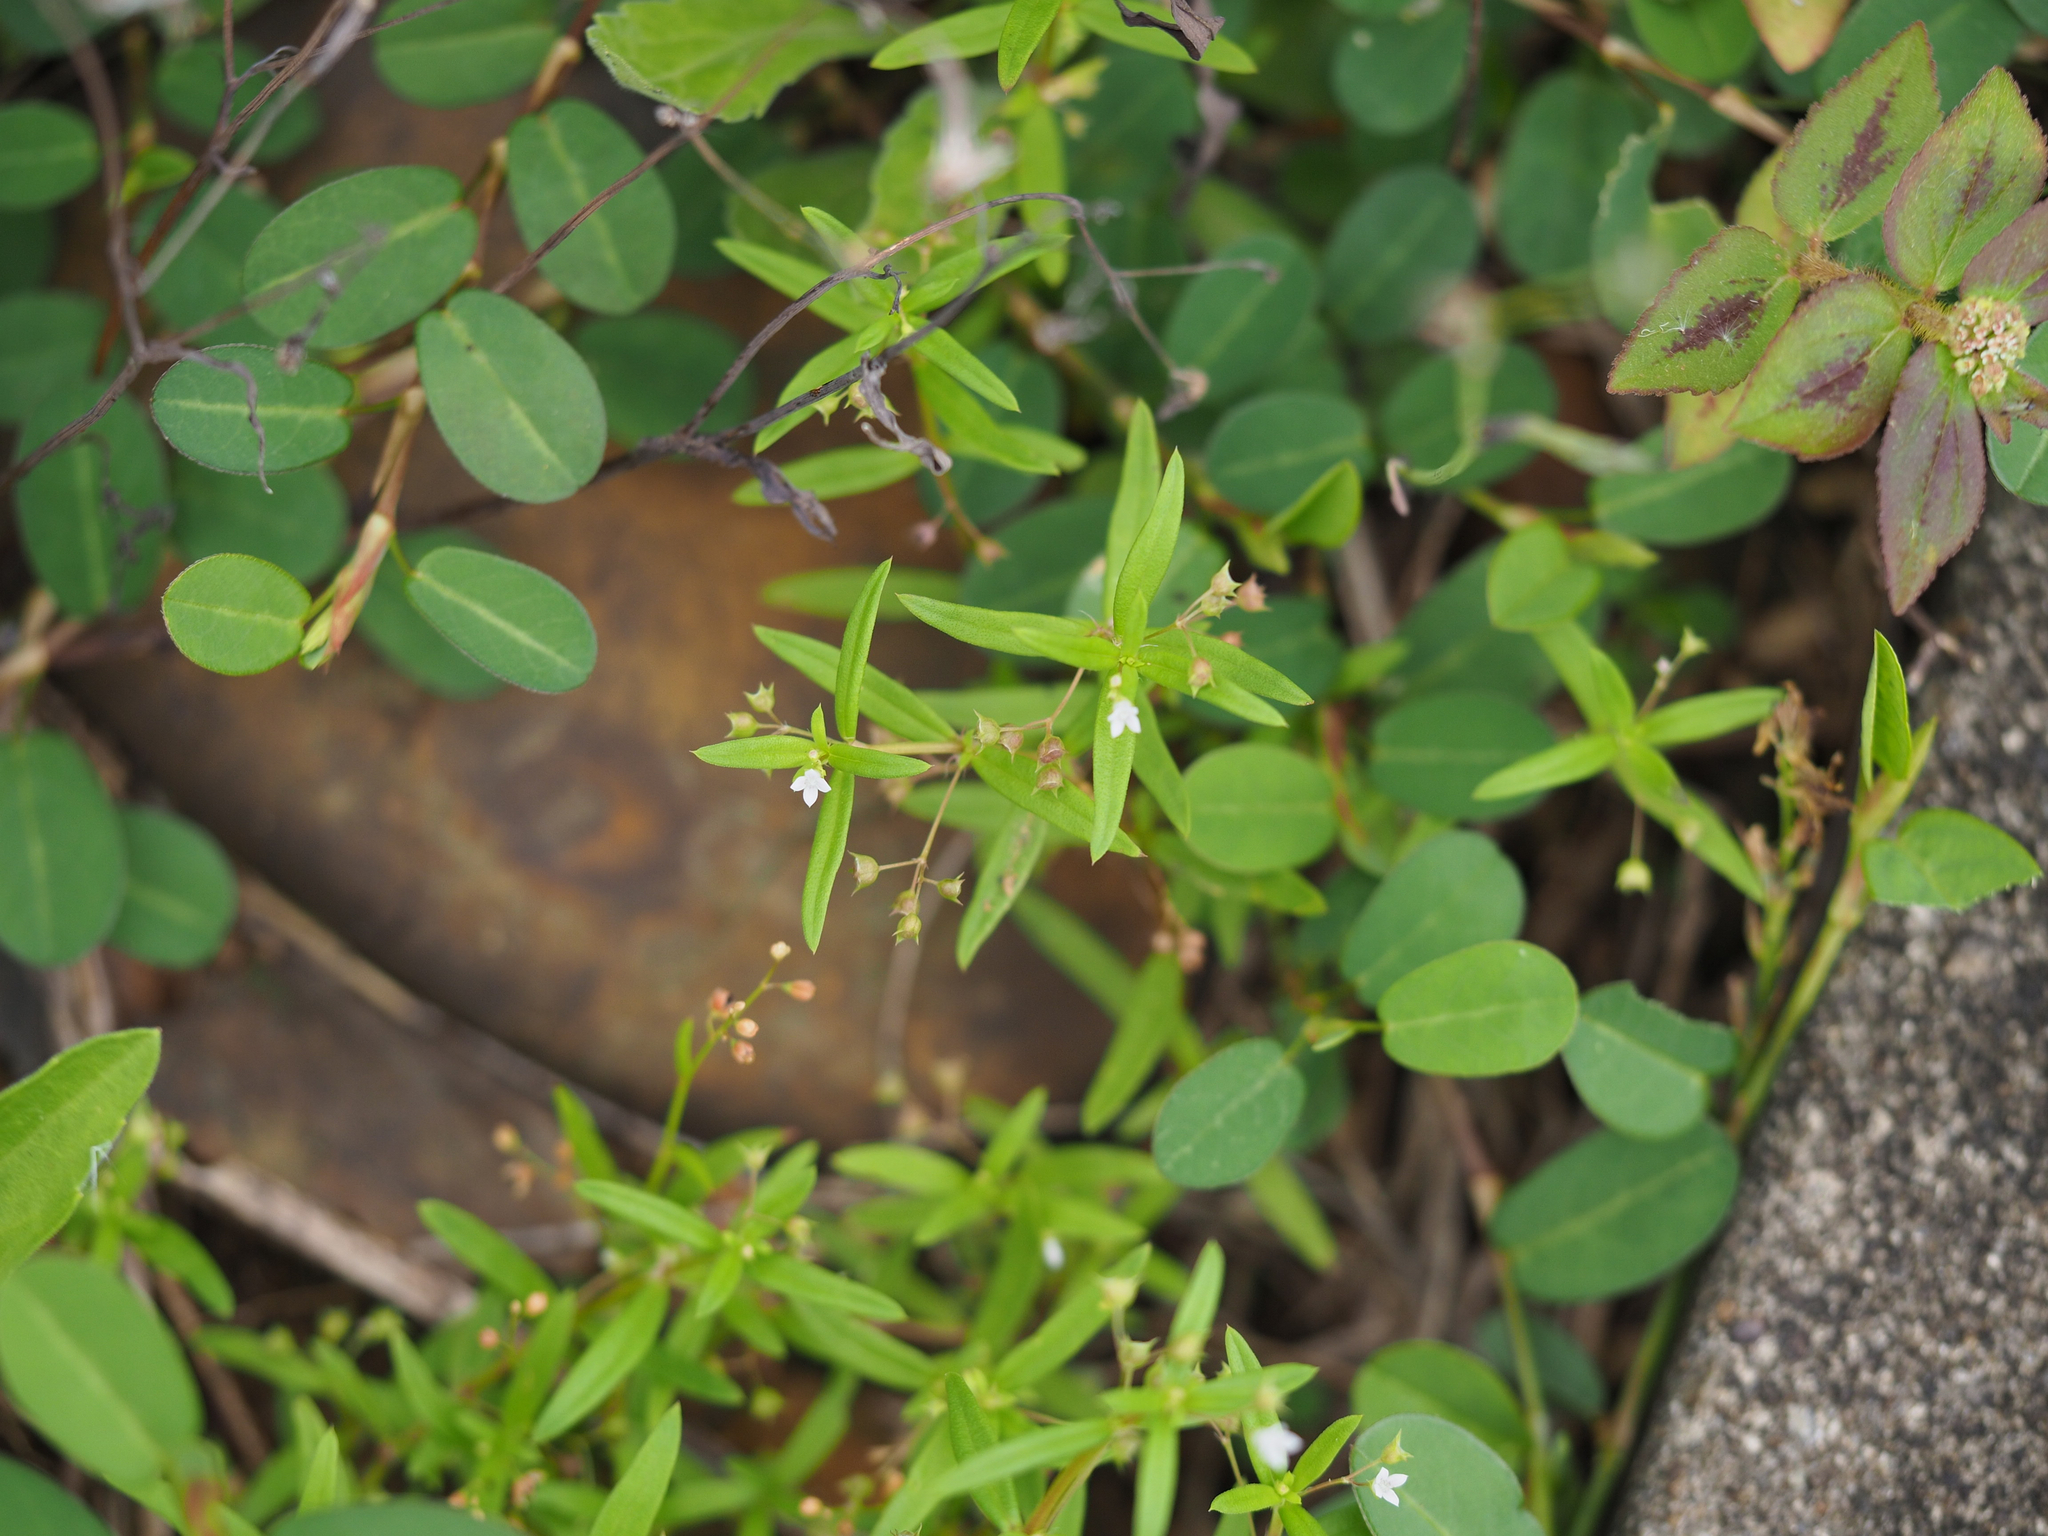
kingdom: Plantae
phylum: Tracheophyta
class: Magnoliopsida
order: Gentianales
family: Rubiaceae
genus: Oldenlandia
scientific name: Oldenlandia corymbosa
